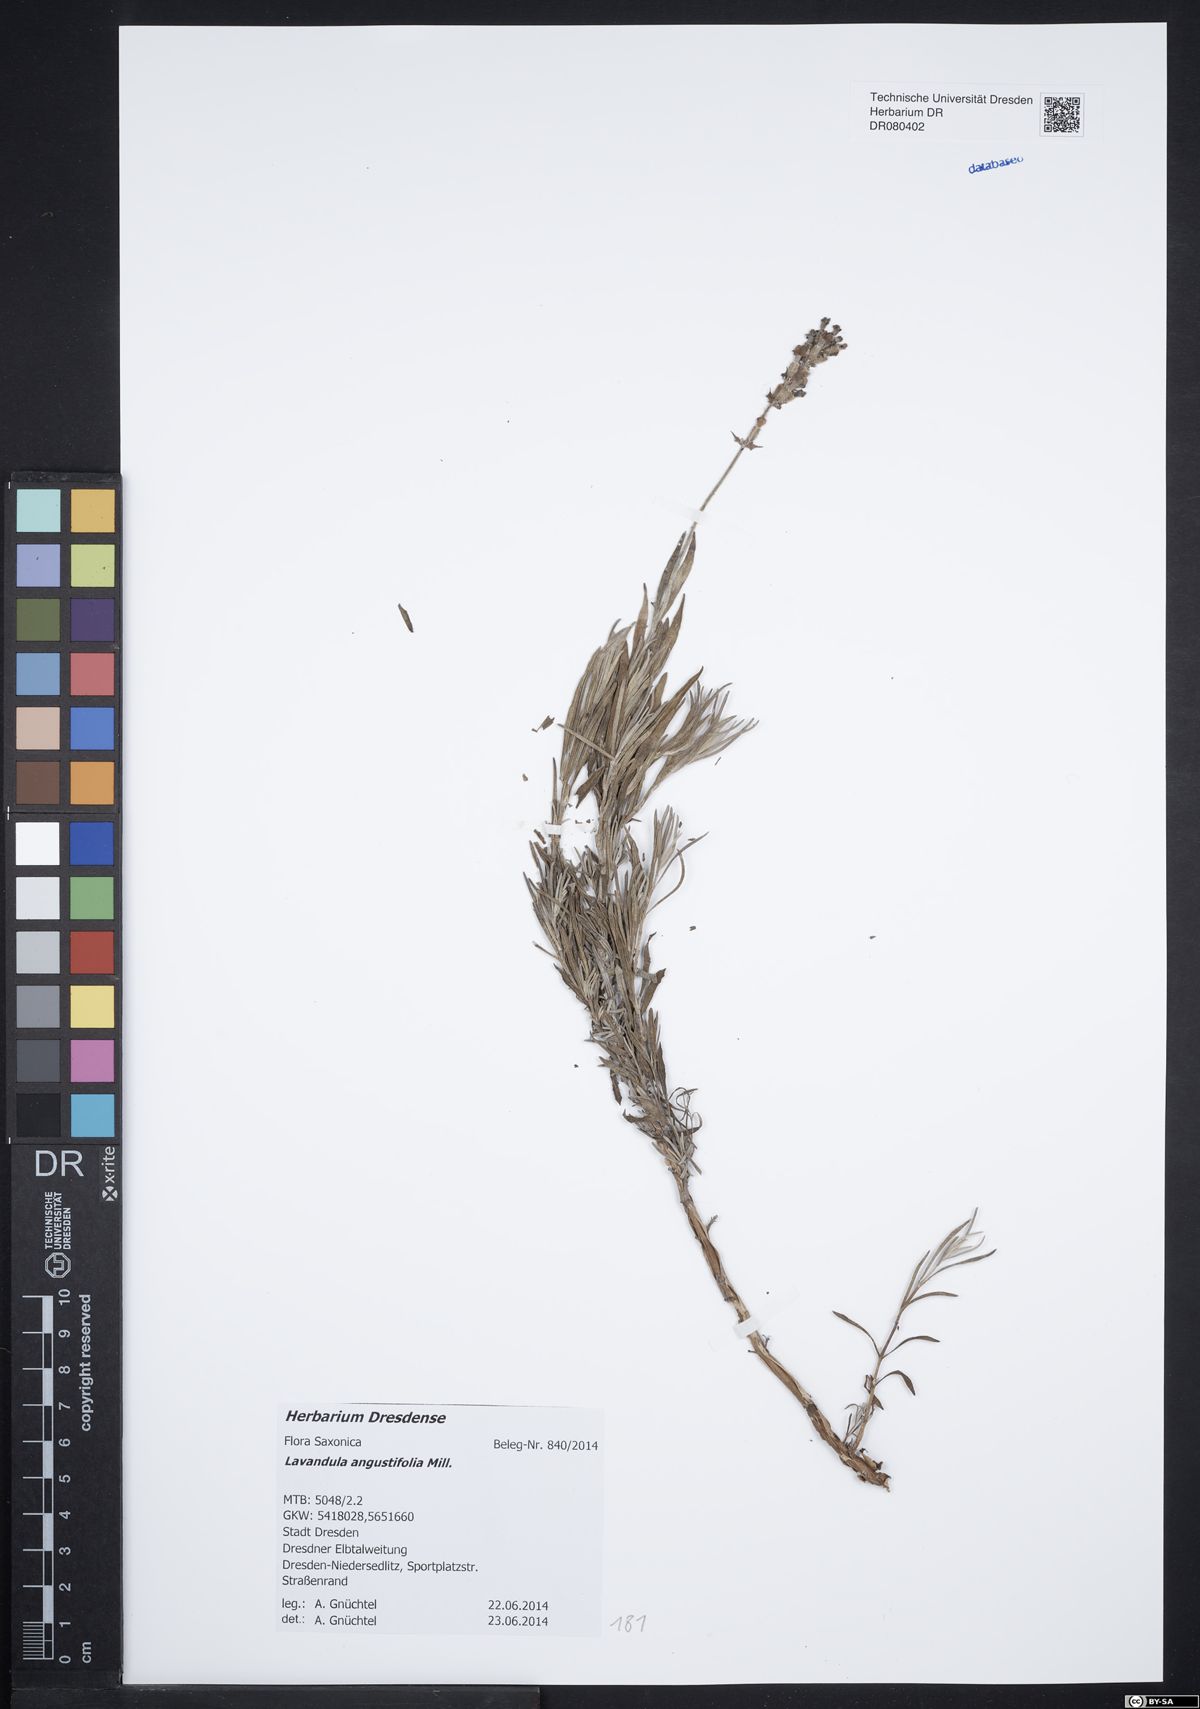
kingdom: Plantae
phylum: Tracheophyta
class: Magnoliopsida
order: Lamiales
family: Lamiaceae
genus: Lavandula
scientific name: Lavandula angustifolia
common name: Garden lavender
